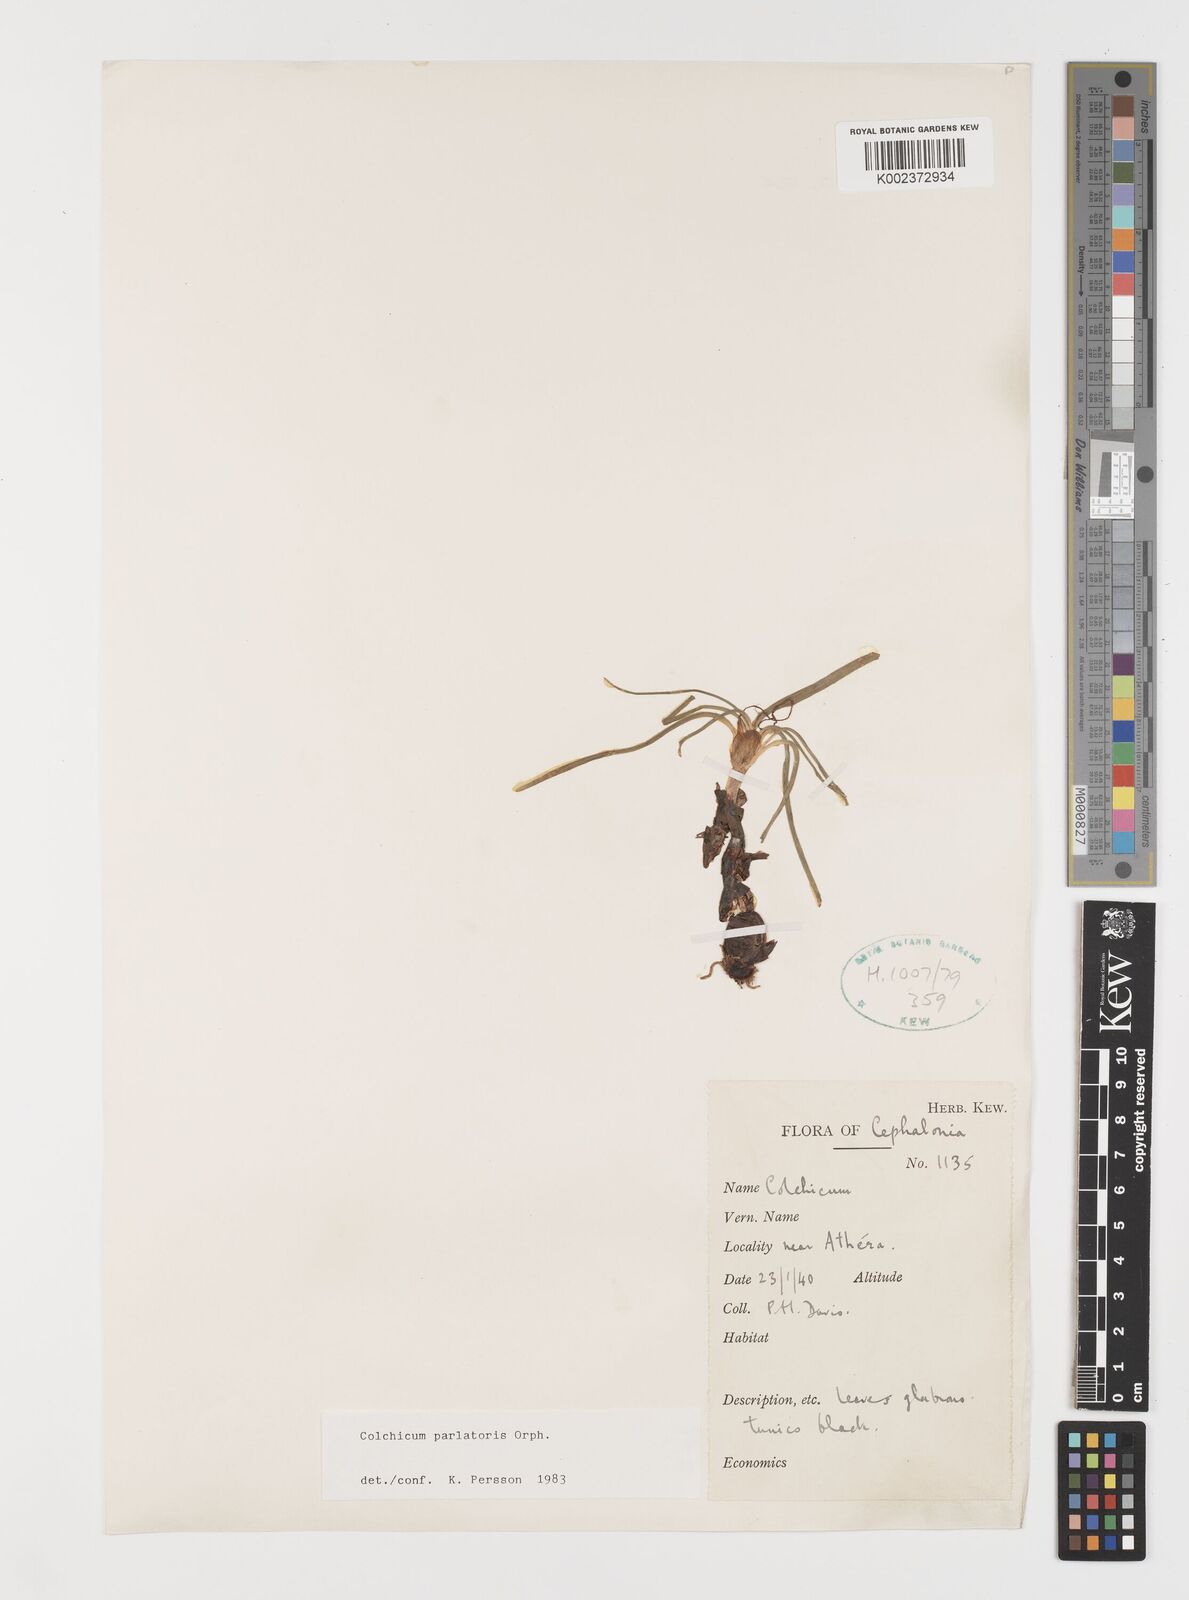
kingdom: Plantae
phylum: Tracheophyta
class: Liliopsida
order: Liliales
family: Colchicaceae
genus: Colchicum
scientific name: Colchicum parlatoris
